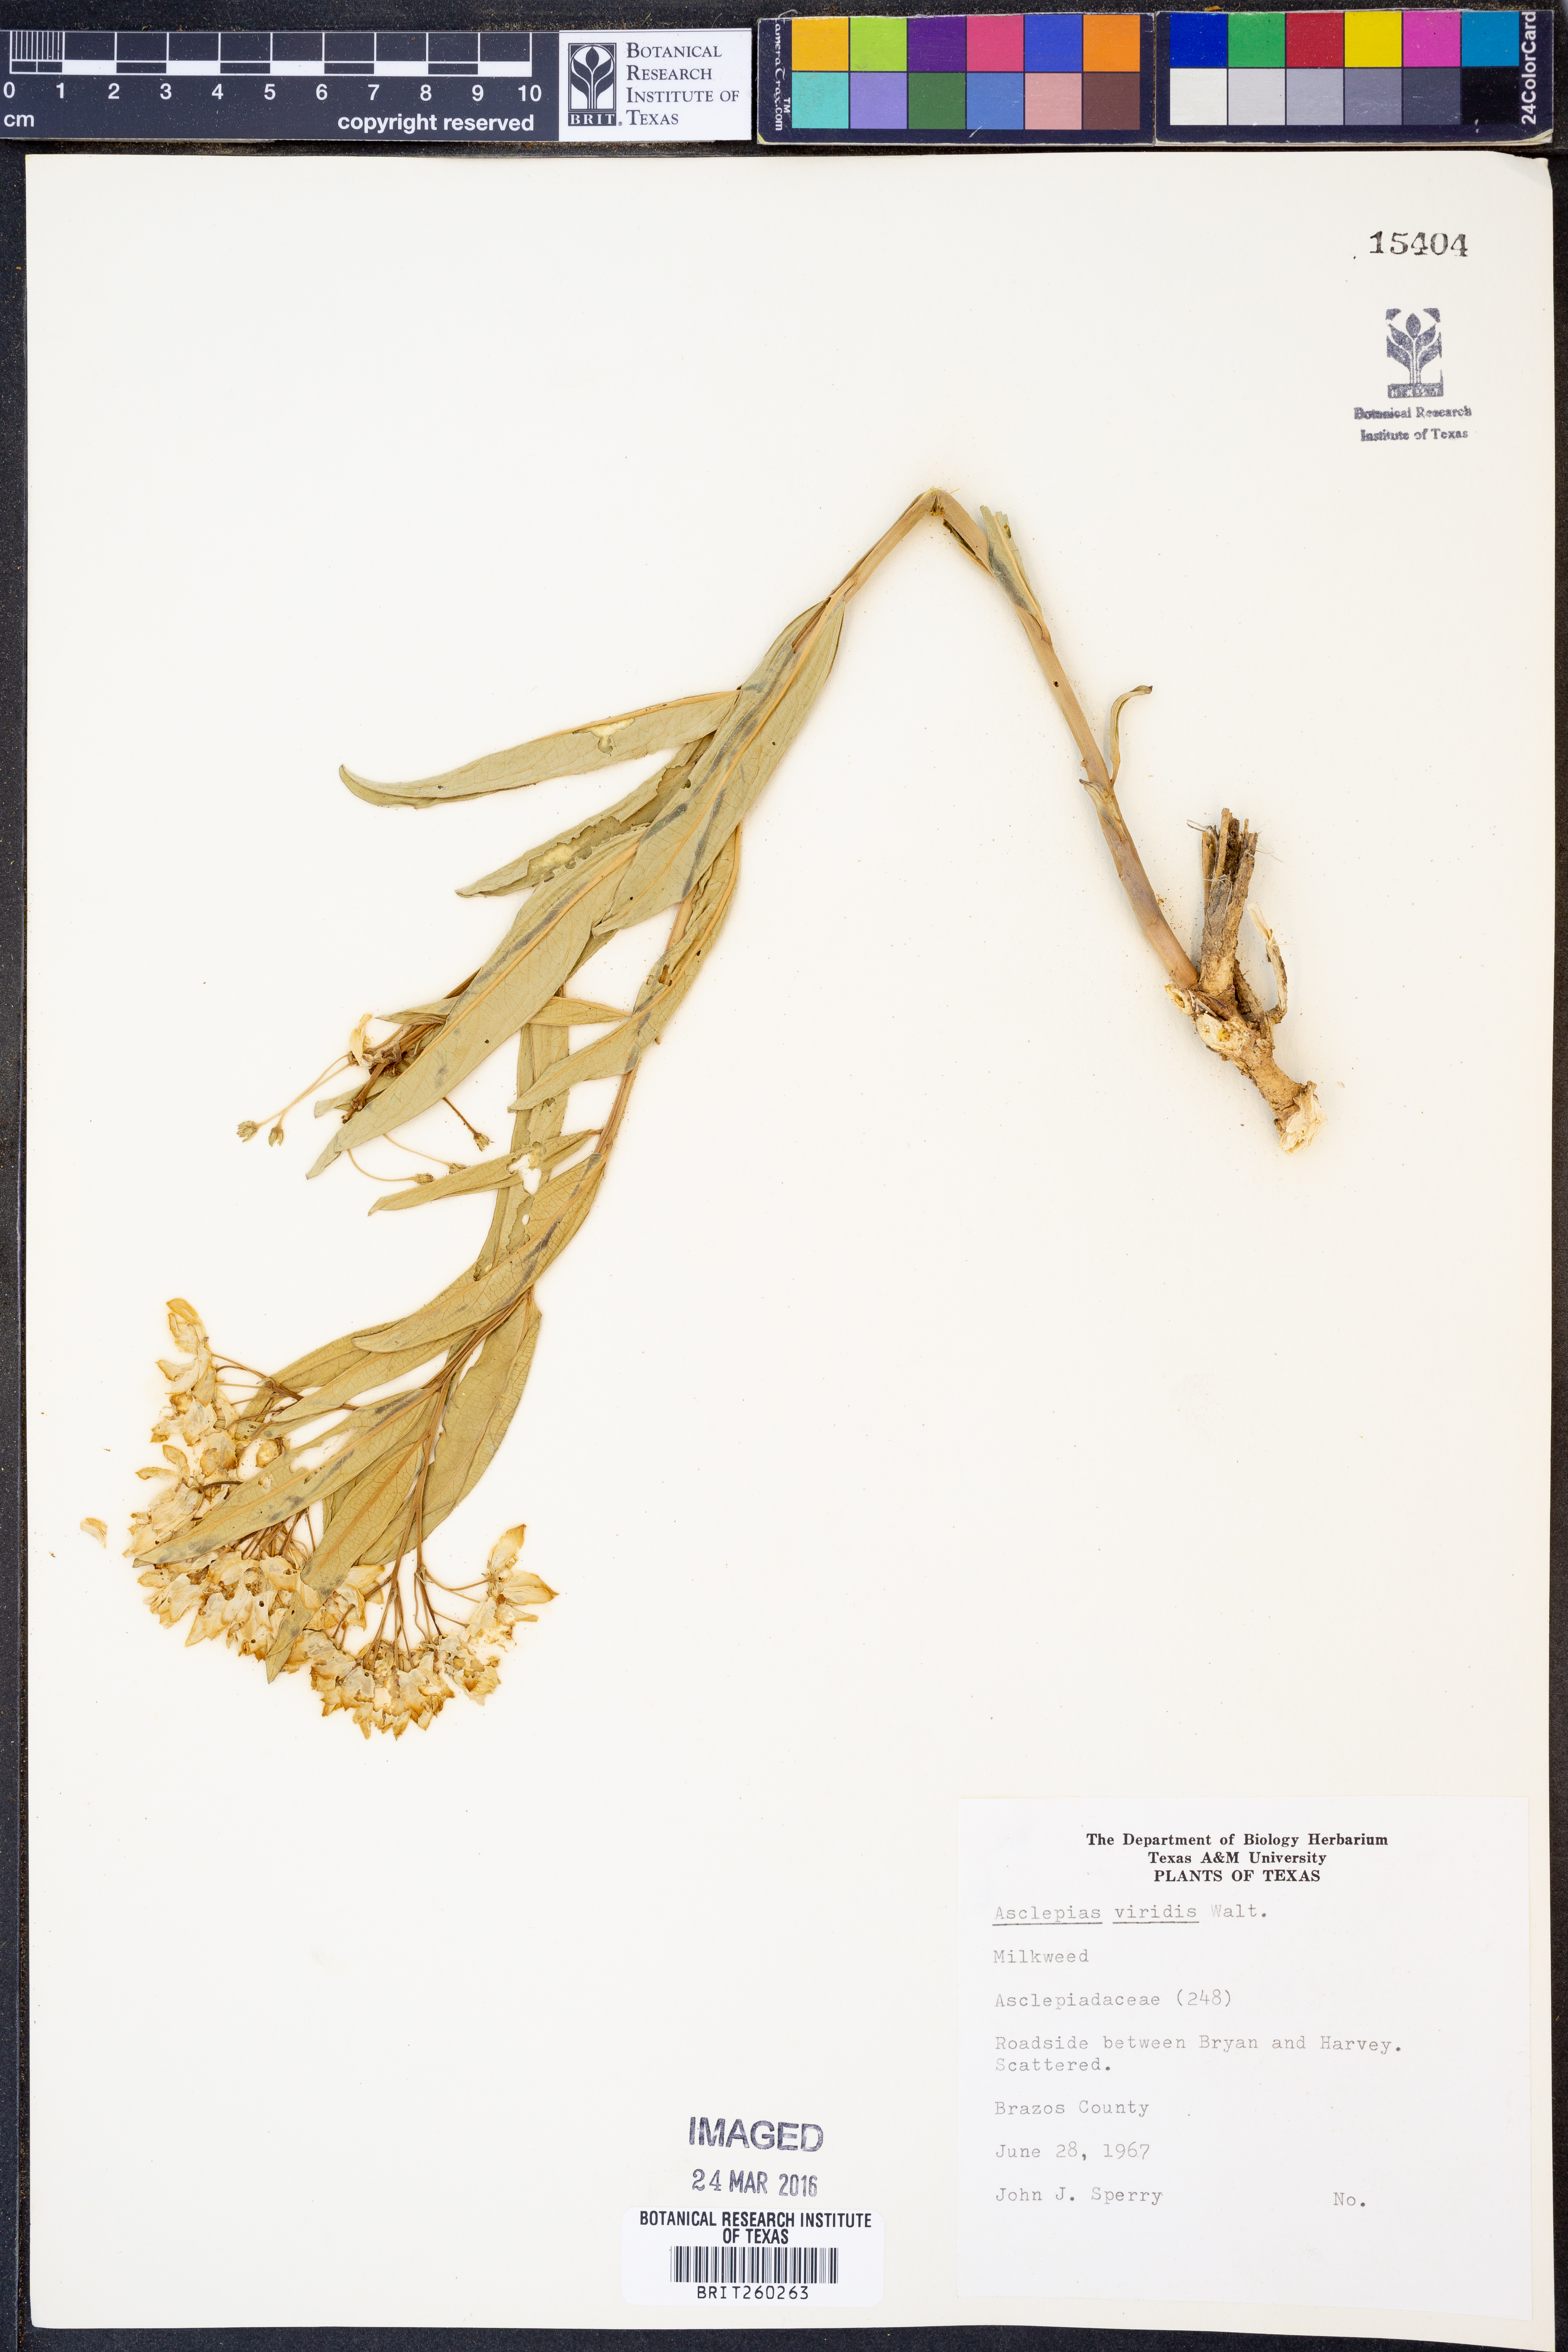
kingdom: Plantae
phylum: Tracheophyta
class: Magnoliopsida
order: Gentianales
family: Apocynaceae
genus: Asclepias
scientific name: Asclepias viridis
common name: Antelope-horns
